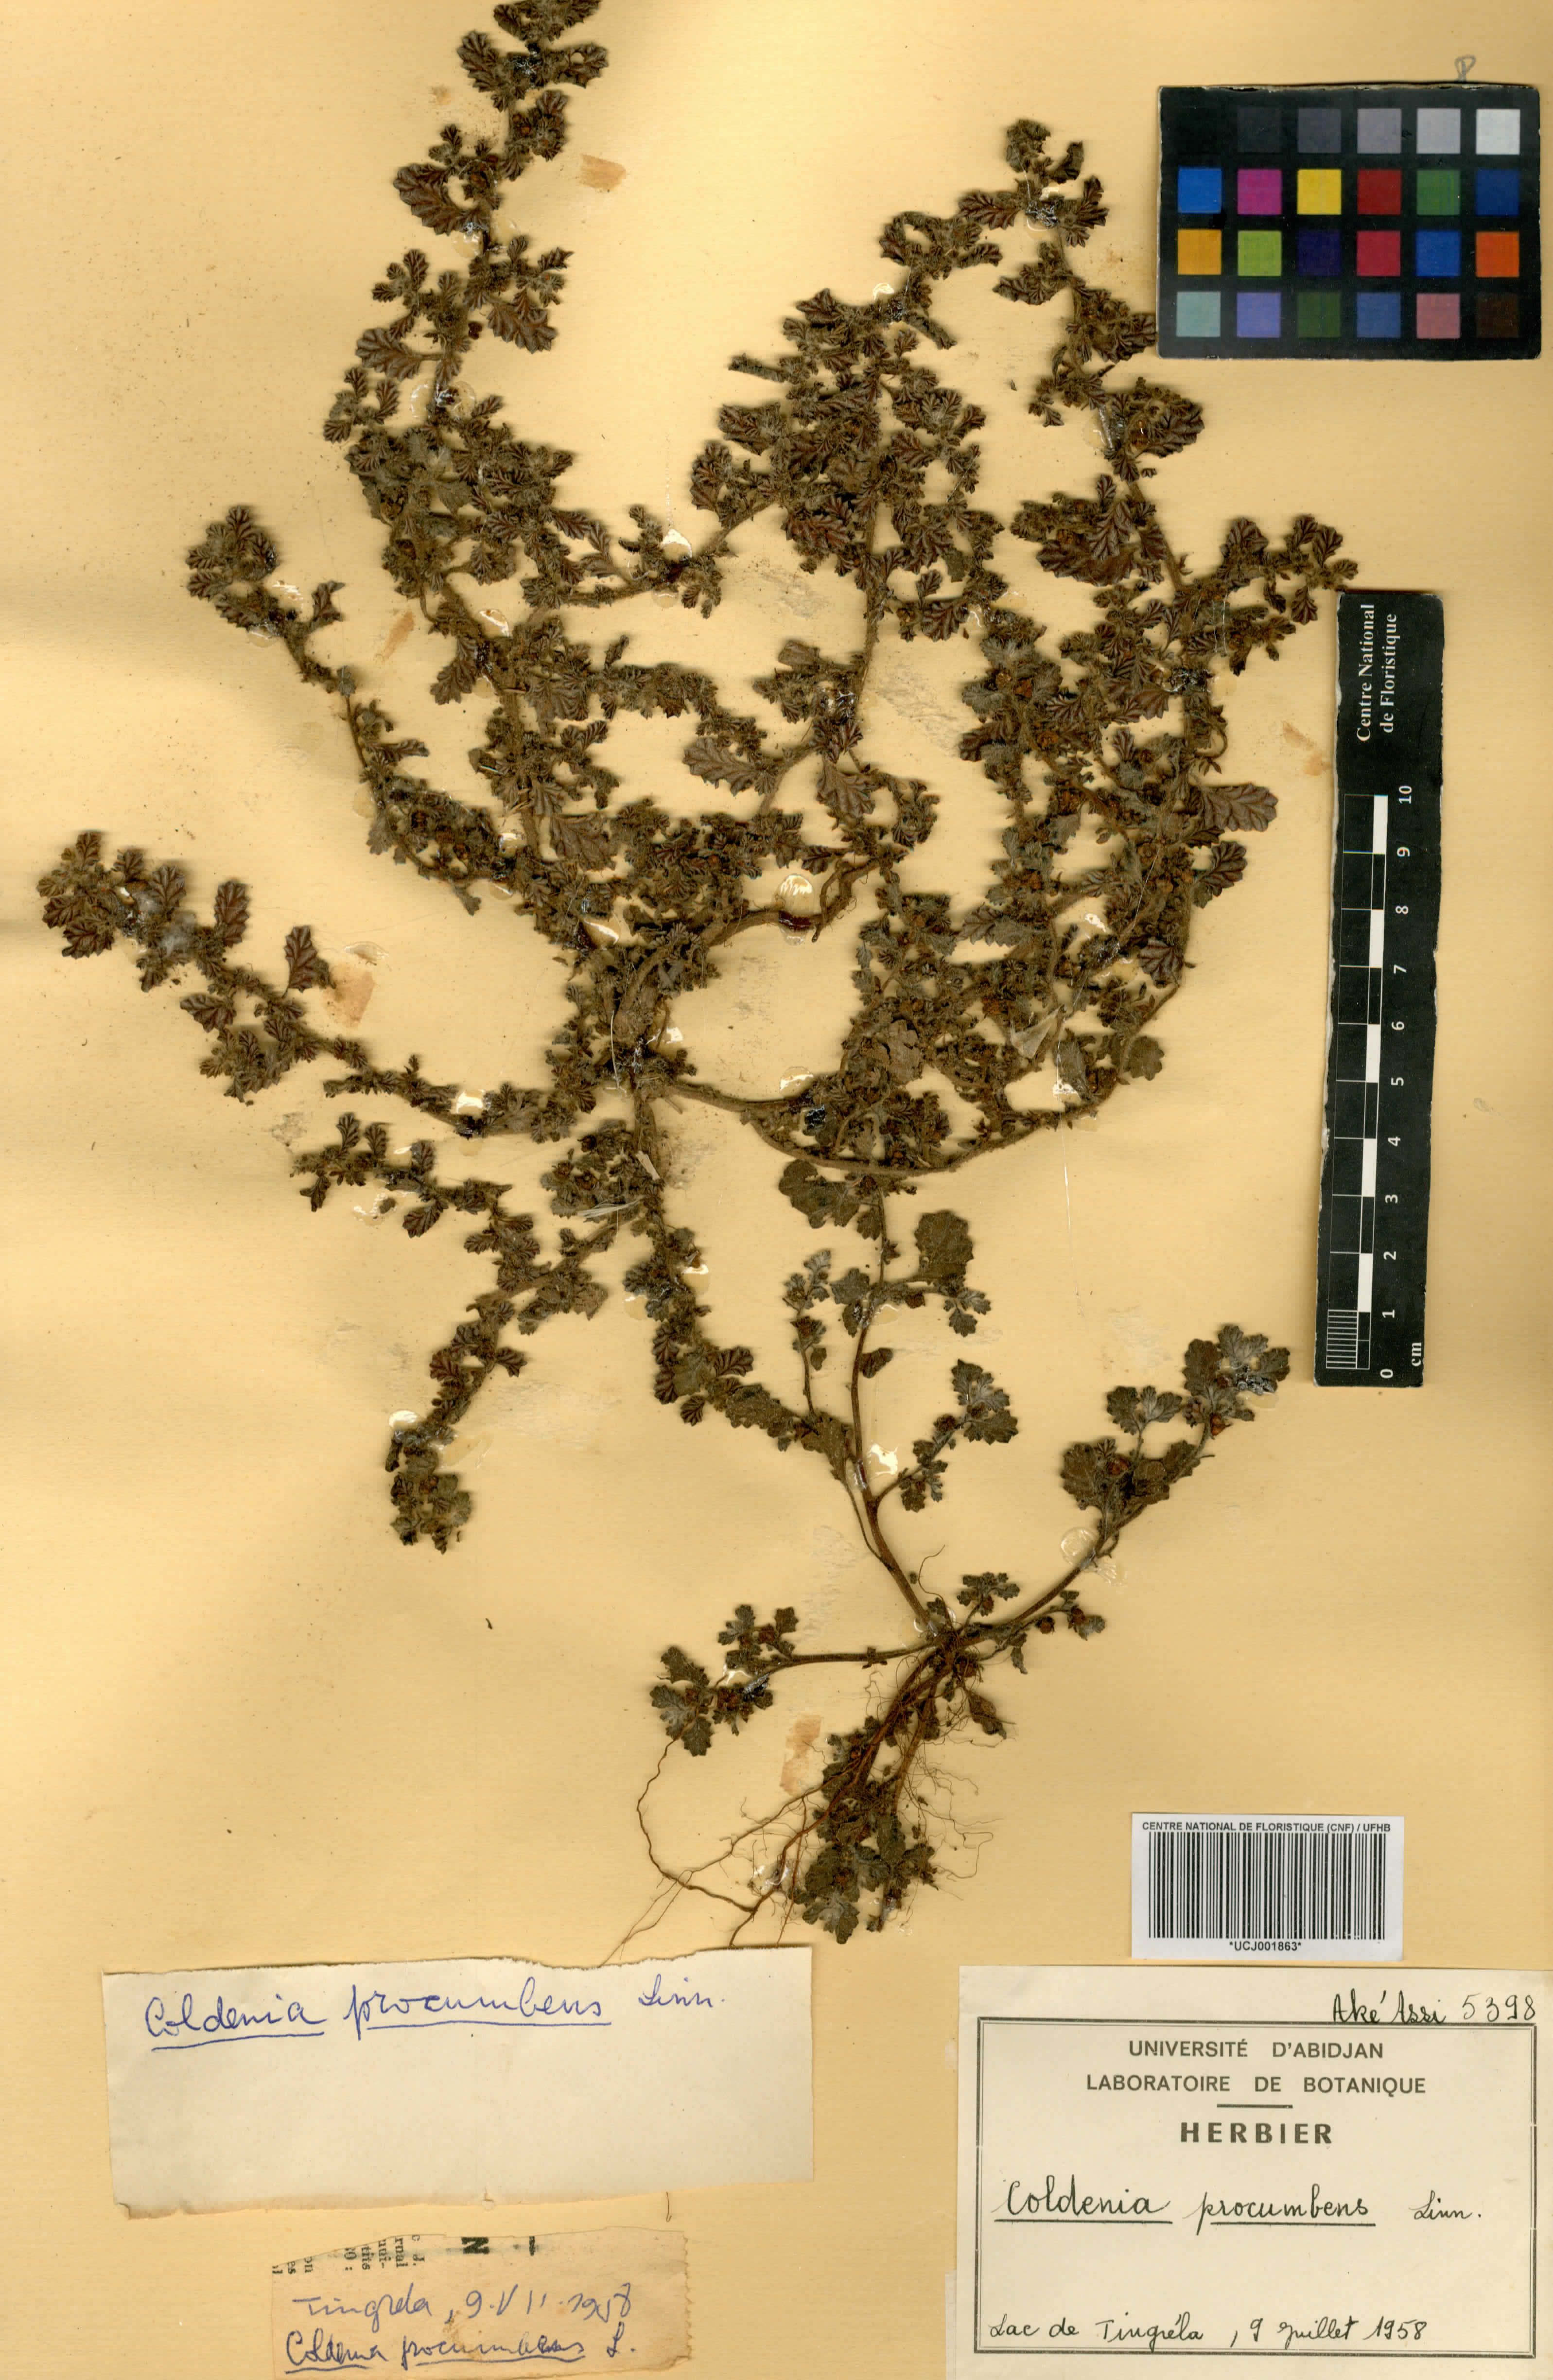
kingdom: Plantae
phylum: Tracheophyta
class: Magnoliopsida
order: Boraginales
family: Coldeniaceae
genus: Coldenia
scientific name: Coldenia procumbens
